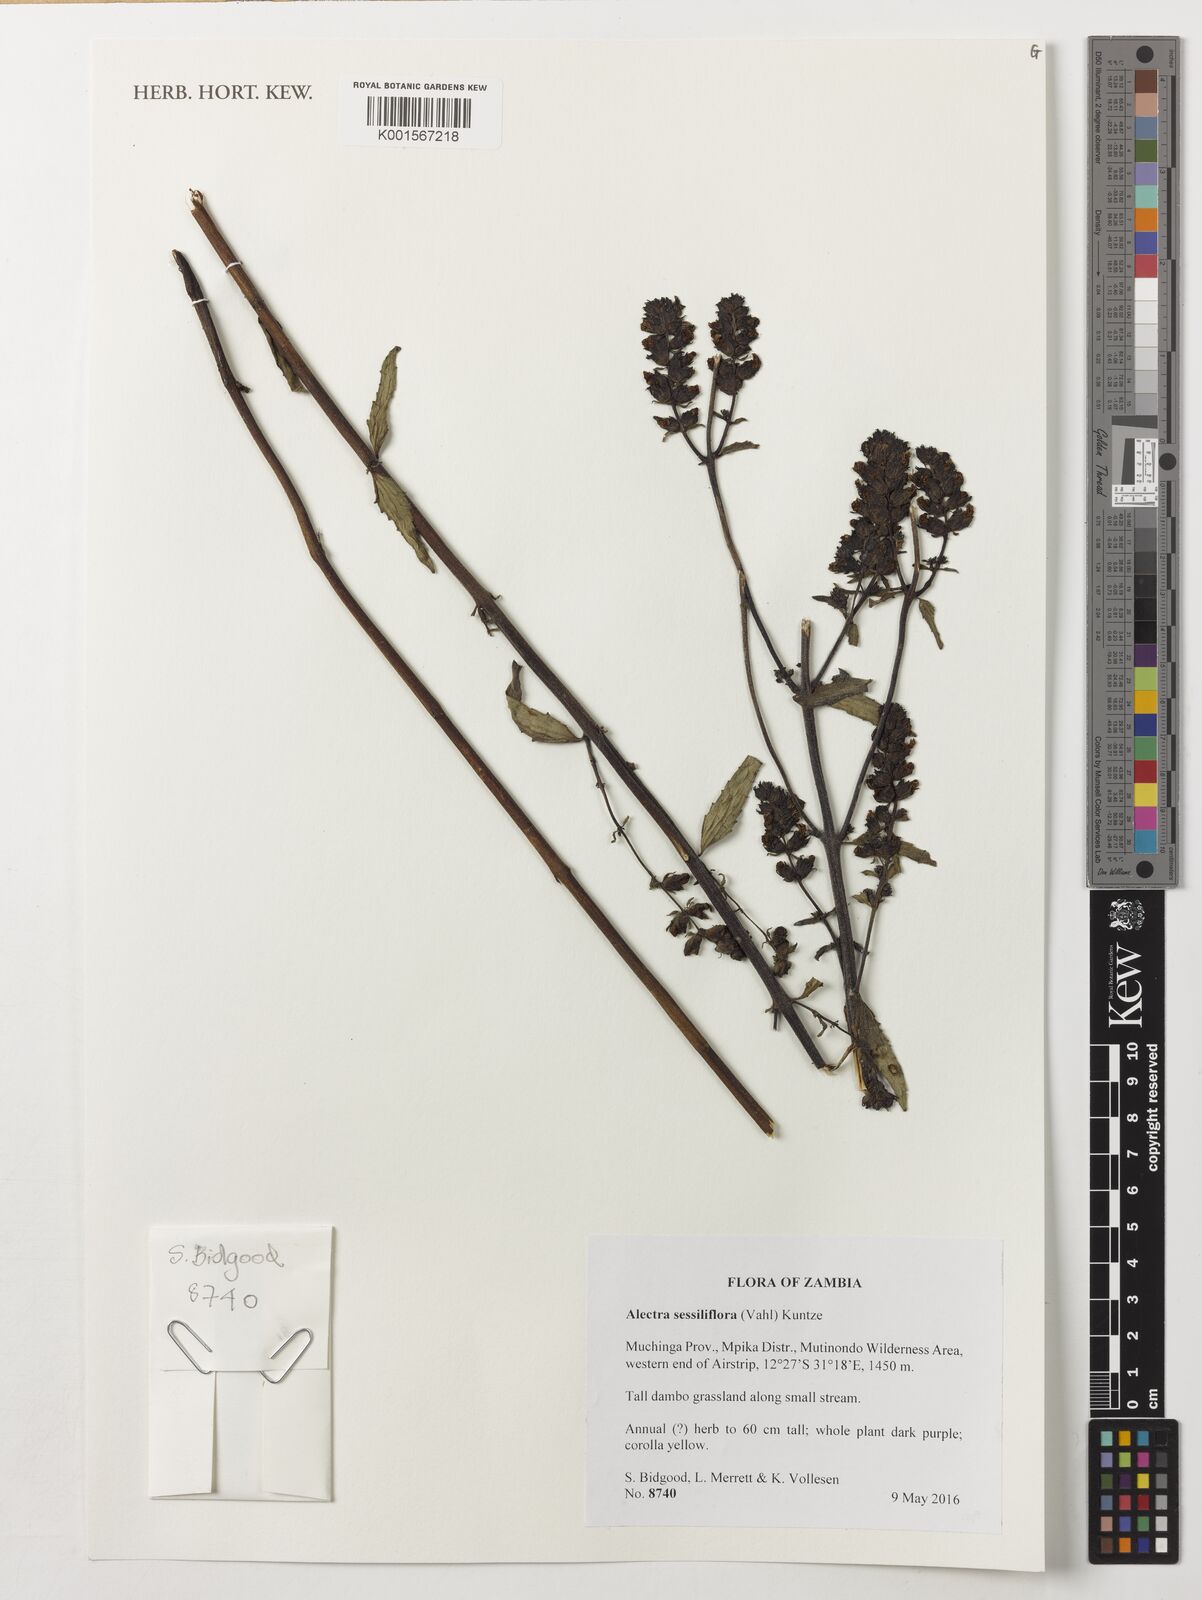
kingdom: Plantae
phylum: Tracheophyta
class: Magnoliopsida
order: Lamiales
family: Orobanchaceae
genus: Alectra
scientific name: Alectra sessiliflora
